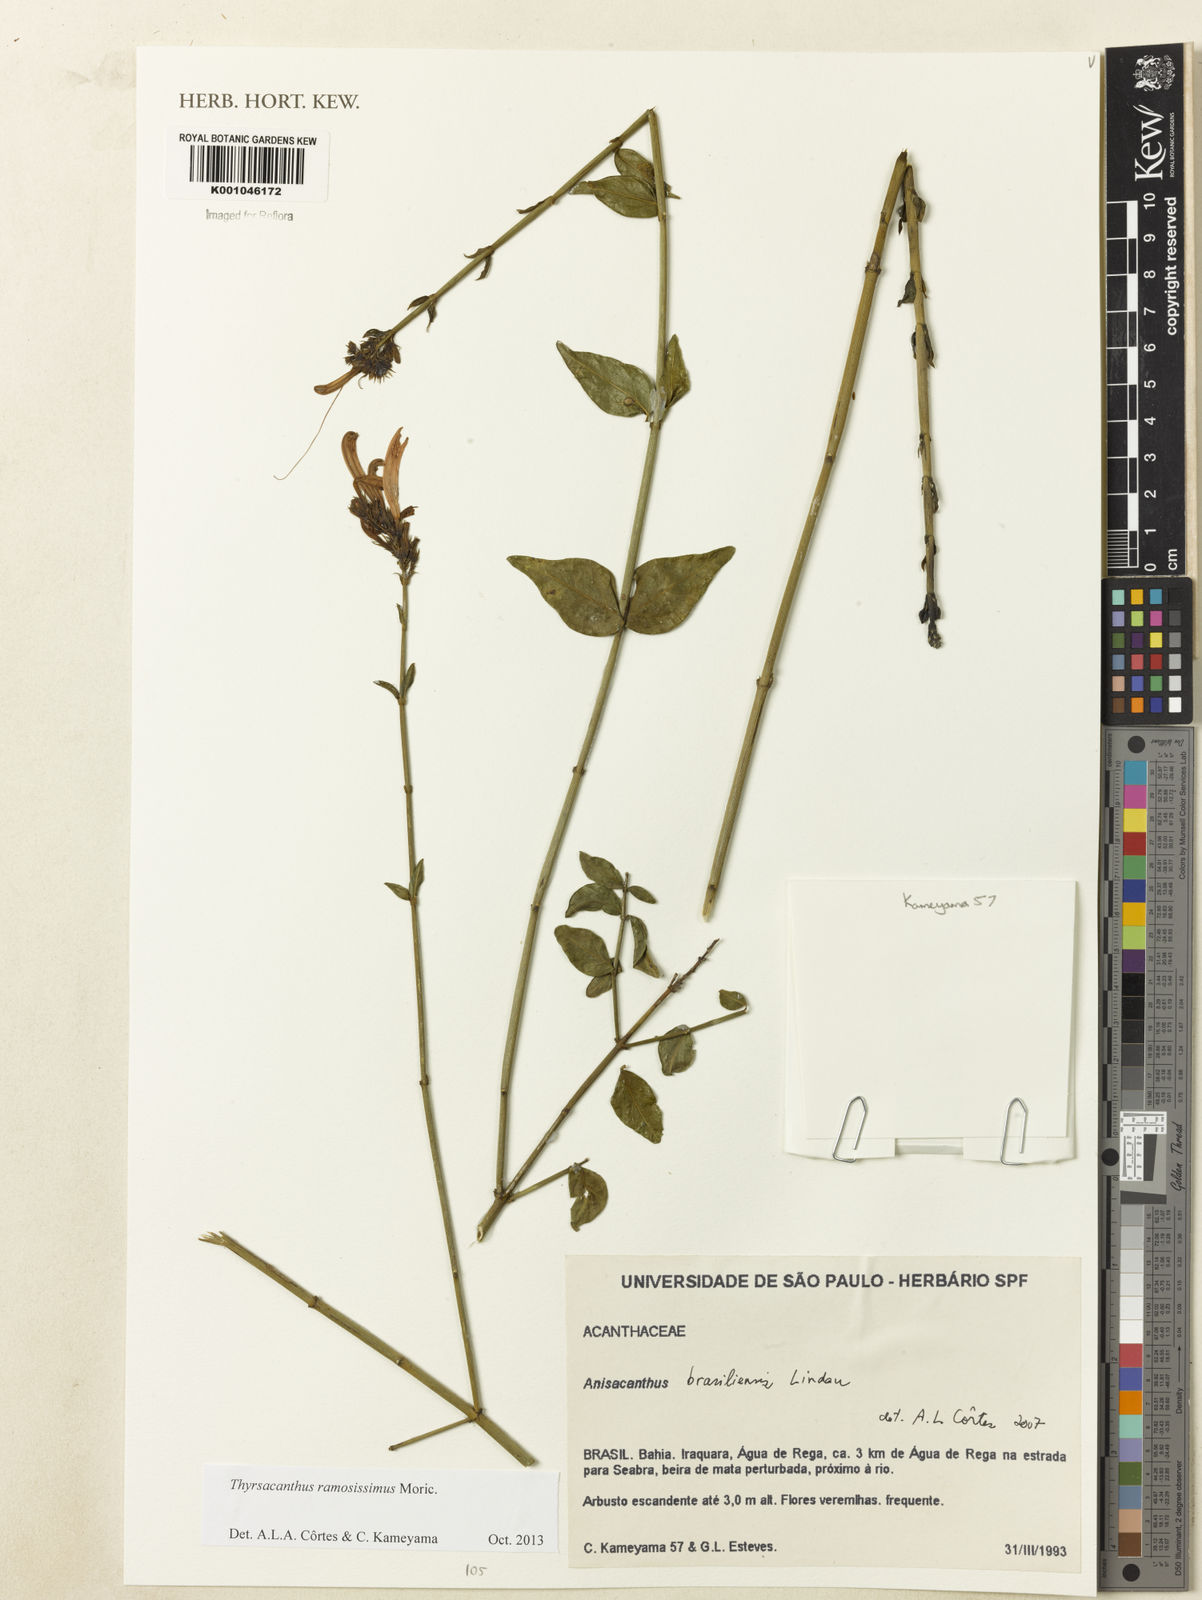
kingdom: Plantae
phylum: Tracheophyta
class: Magnoliopsida
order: Lamiales
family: Acanthaceae
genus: Thyrsacanthus
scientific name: Thyrsacanthus ramosissimus
